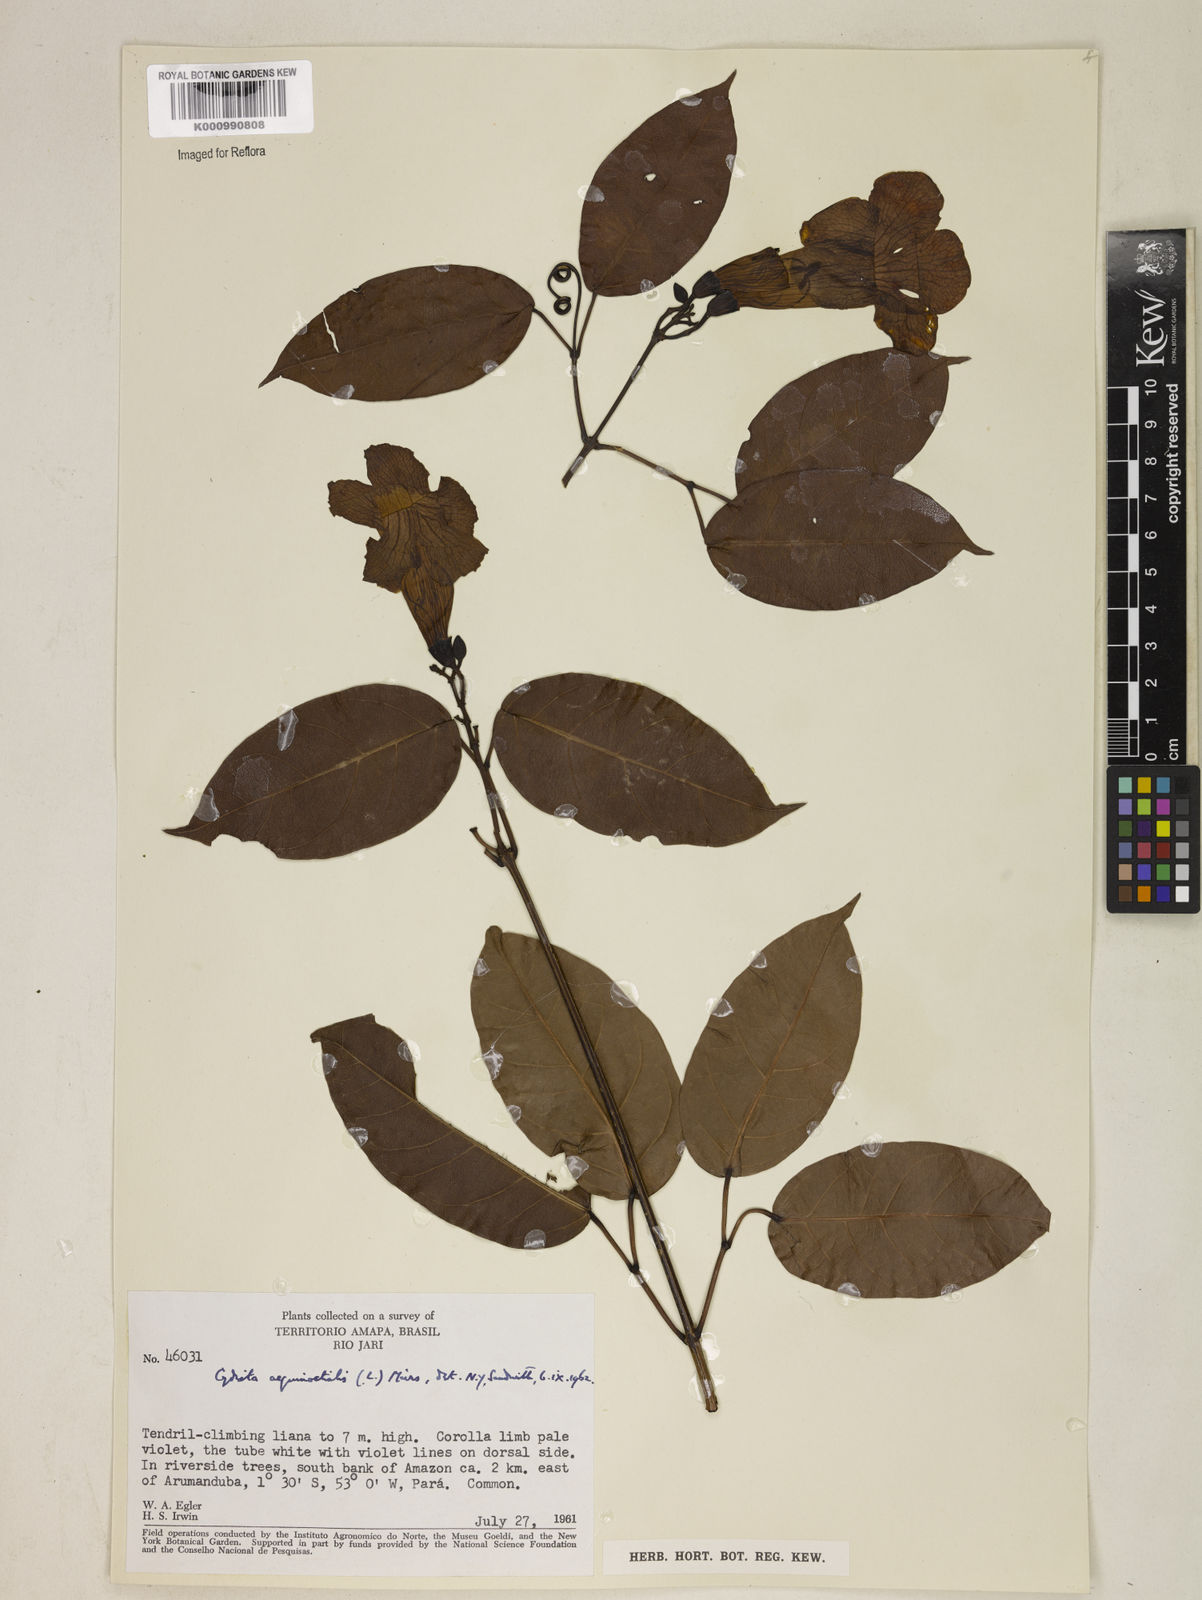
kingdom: Plantae
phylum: Tracheophyta
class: Magnoliopsida
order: Lamiales
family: Bignoniaceae
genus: Bignonia
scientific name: Bignonia aequinoctialis
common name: Garlicvine
